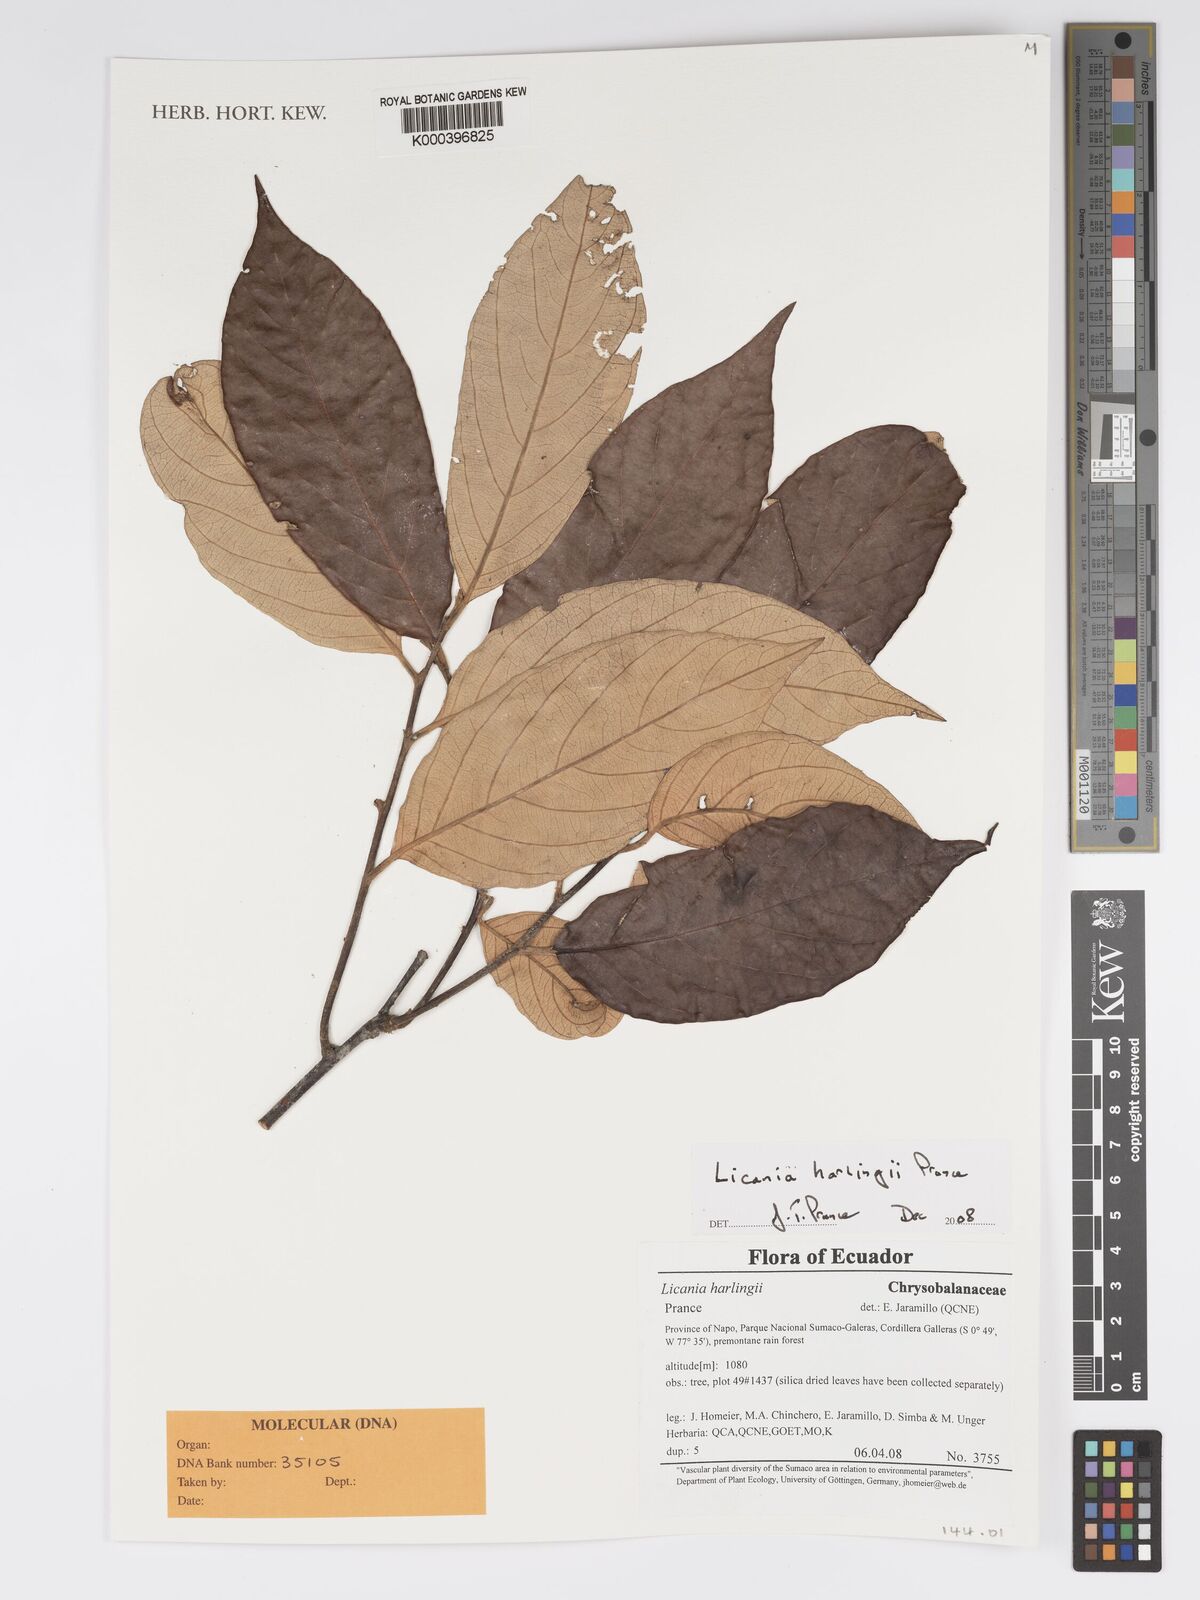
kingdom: Plantae
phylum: Tracheophyta
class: Magnoliopsida
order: Malpighiales
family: Chrysobalanaceae
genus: Licania
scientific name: Licania harlingii
